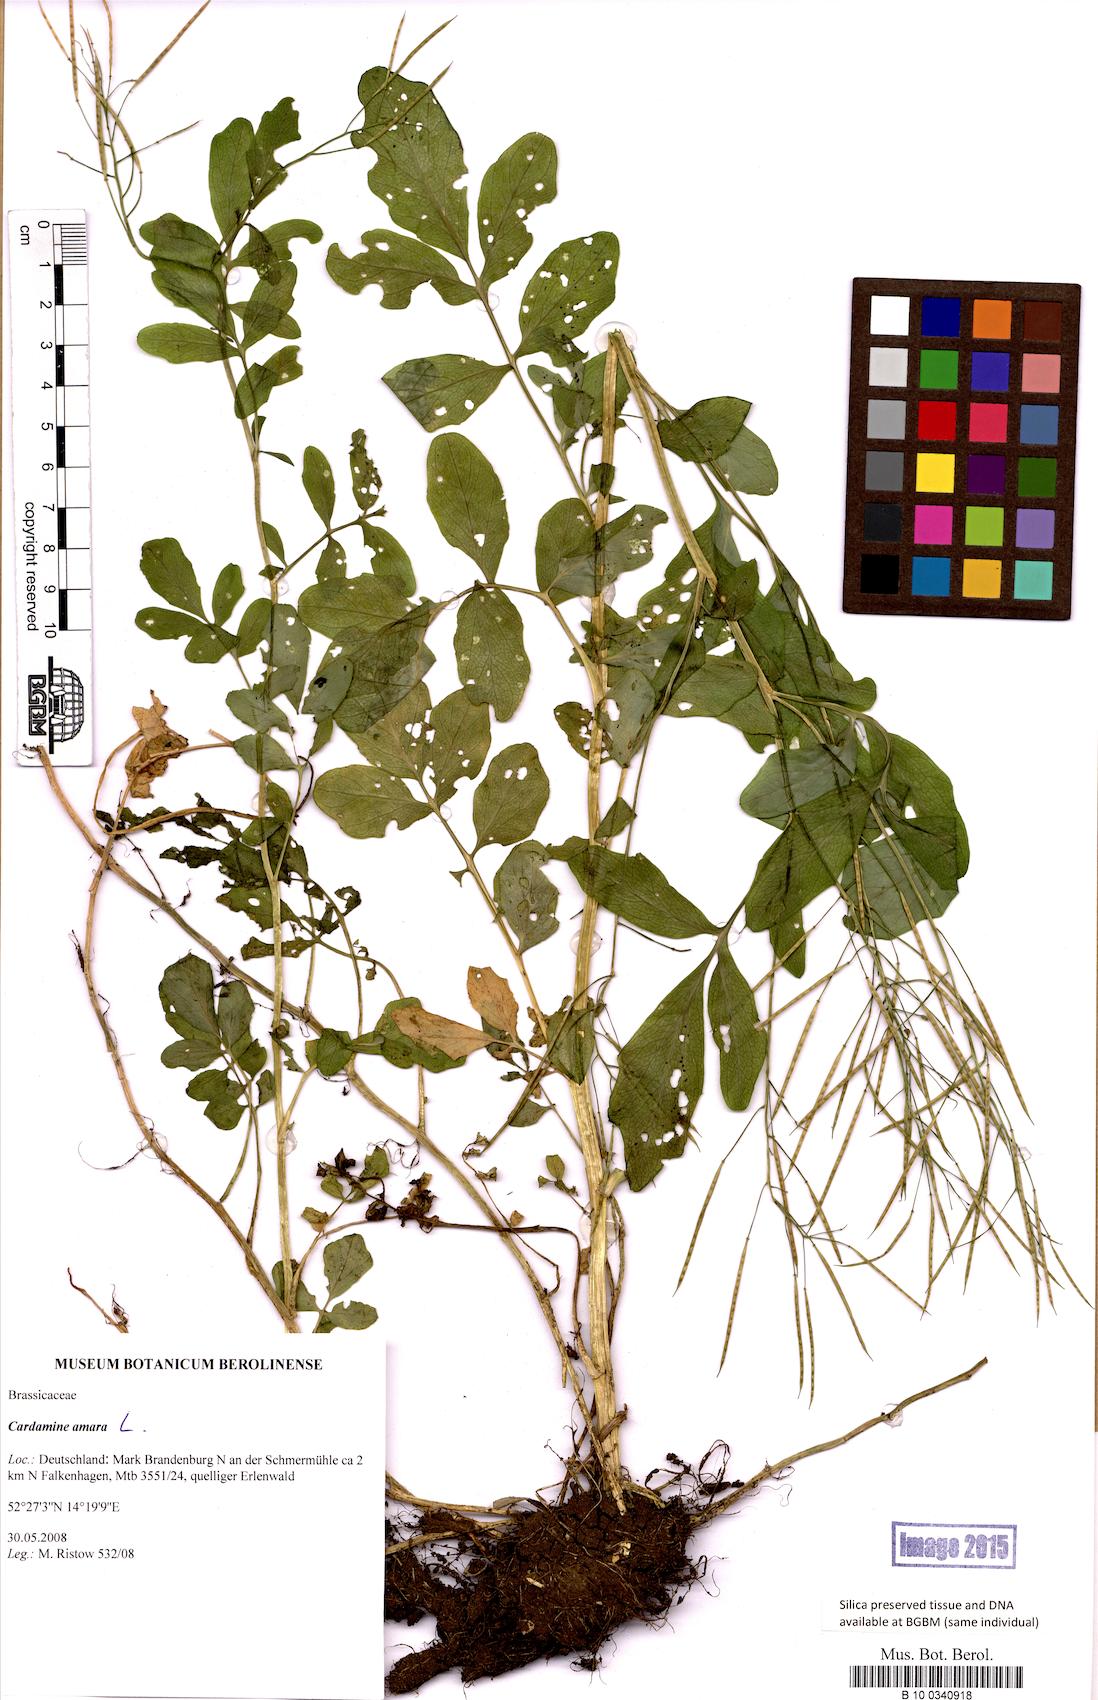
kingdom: Plantae
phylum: Tracheophyta
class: Magnoliopsida
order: Brassicales
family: Brassicaceae
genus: Cardamine
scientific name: Cardamine amara
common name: Large bitter-cress
